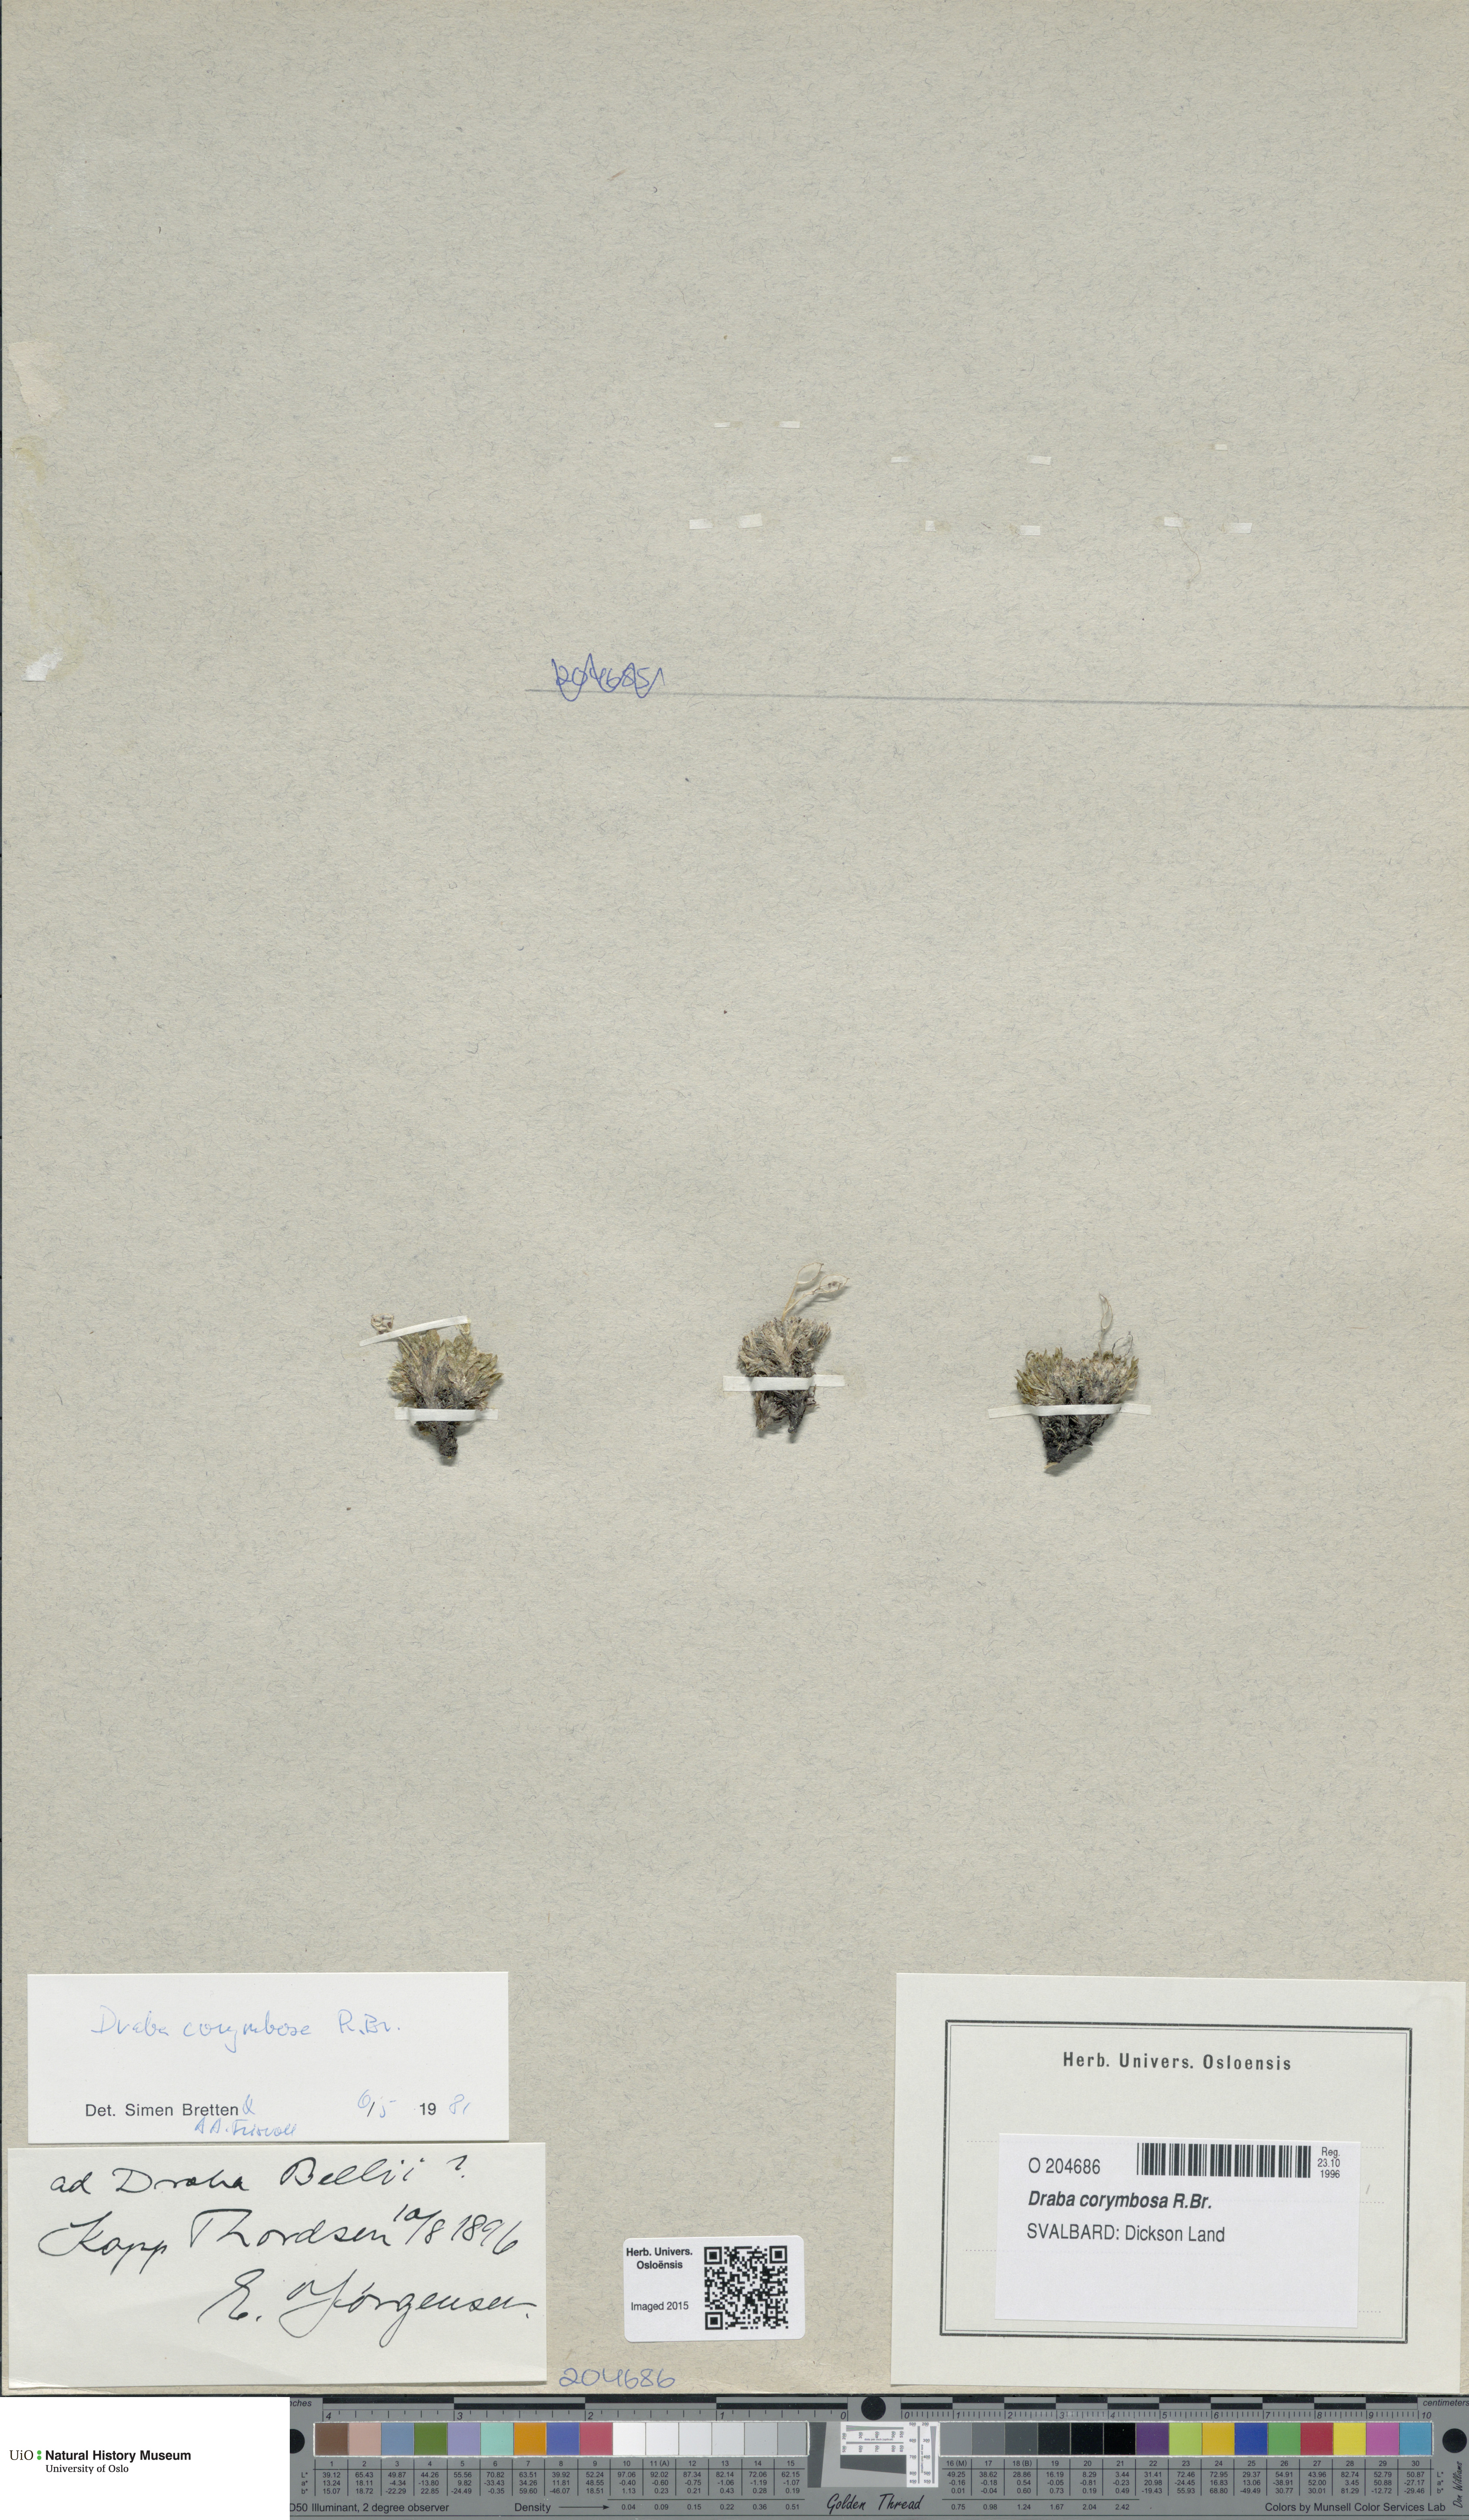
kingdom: Plantae
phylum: Tracheophyta
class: Magnoliopsida
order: Brassicales
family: Brassicaceae
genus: Draba
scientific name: Draba corymbosa
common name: Cushion whitlow-grass
